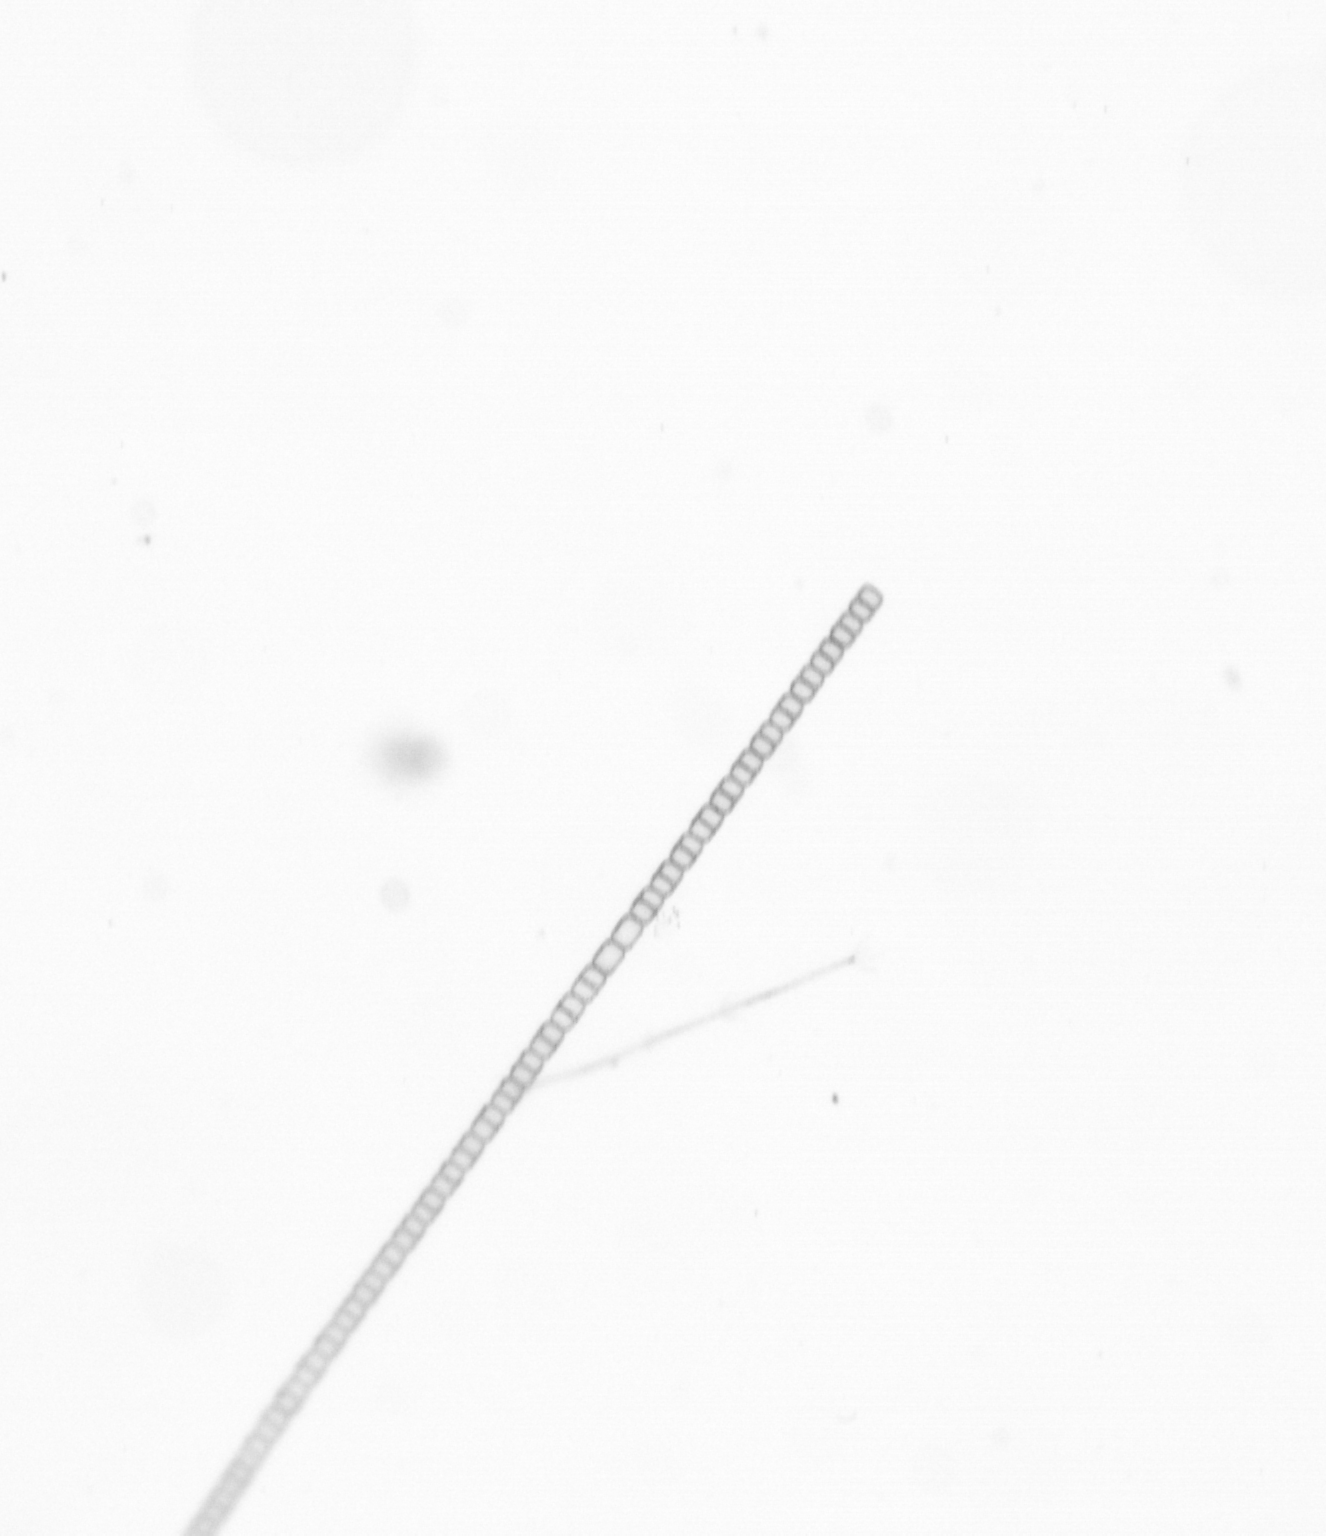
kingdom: Chromista
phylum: Ochrophyta
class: Bacillariophyceae
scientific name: Bacillariophyceae
